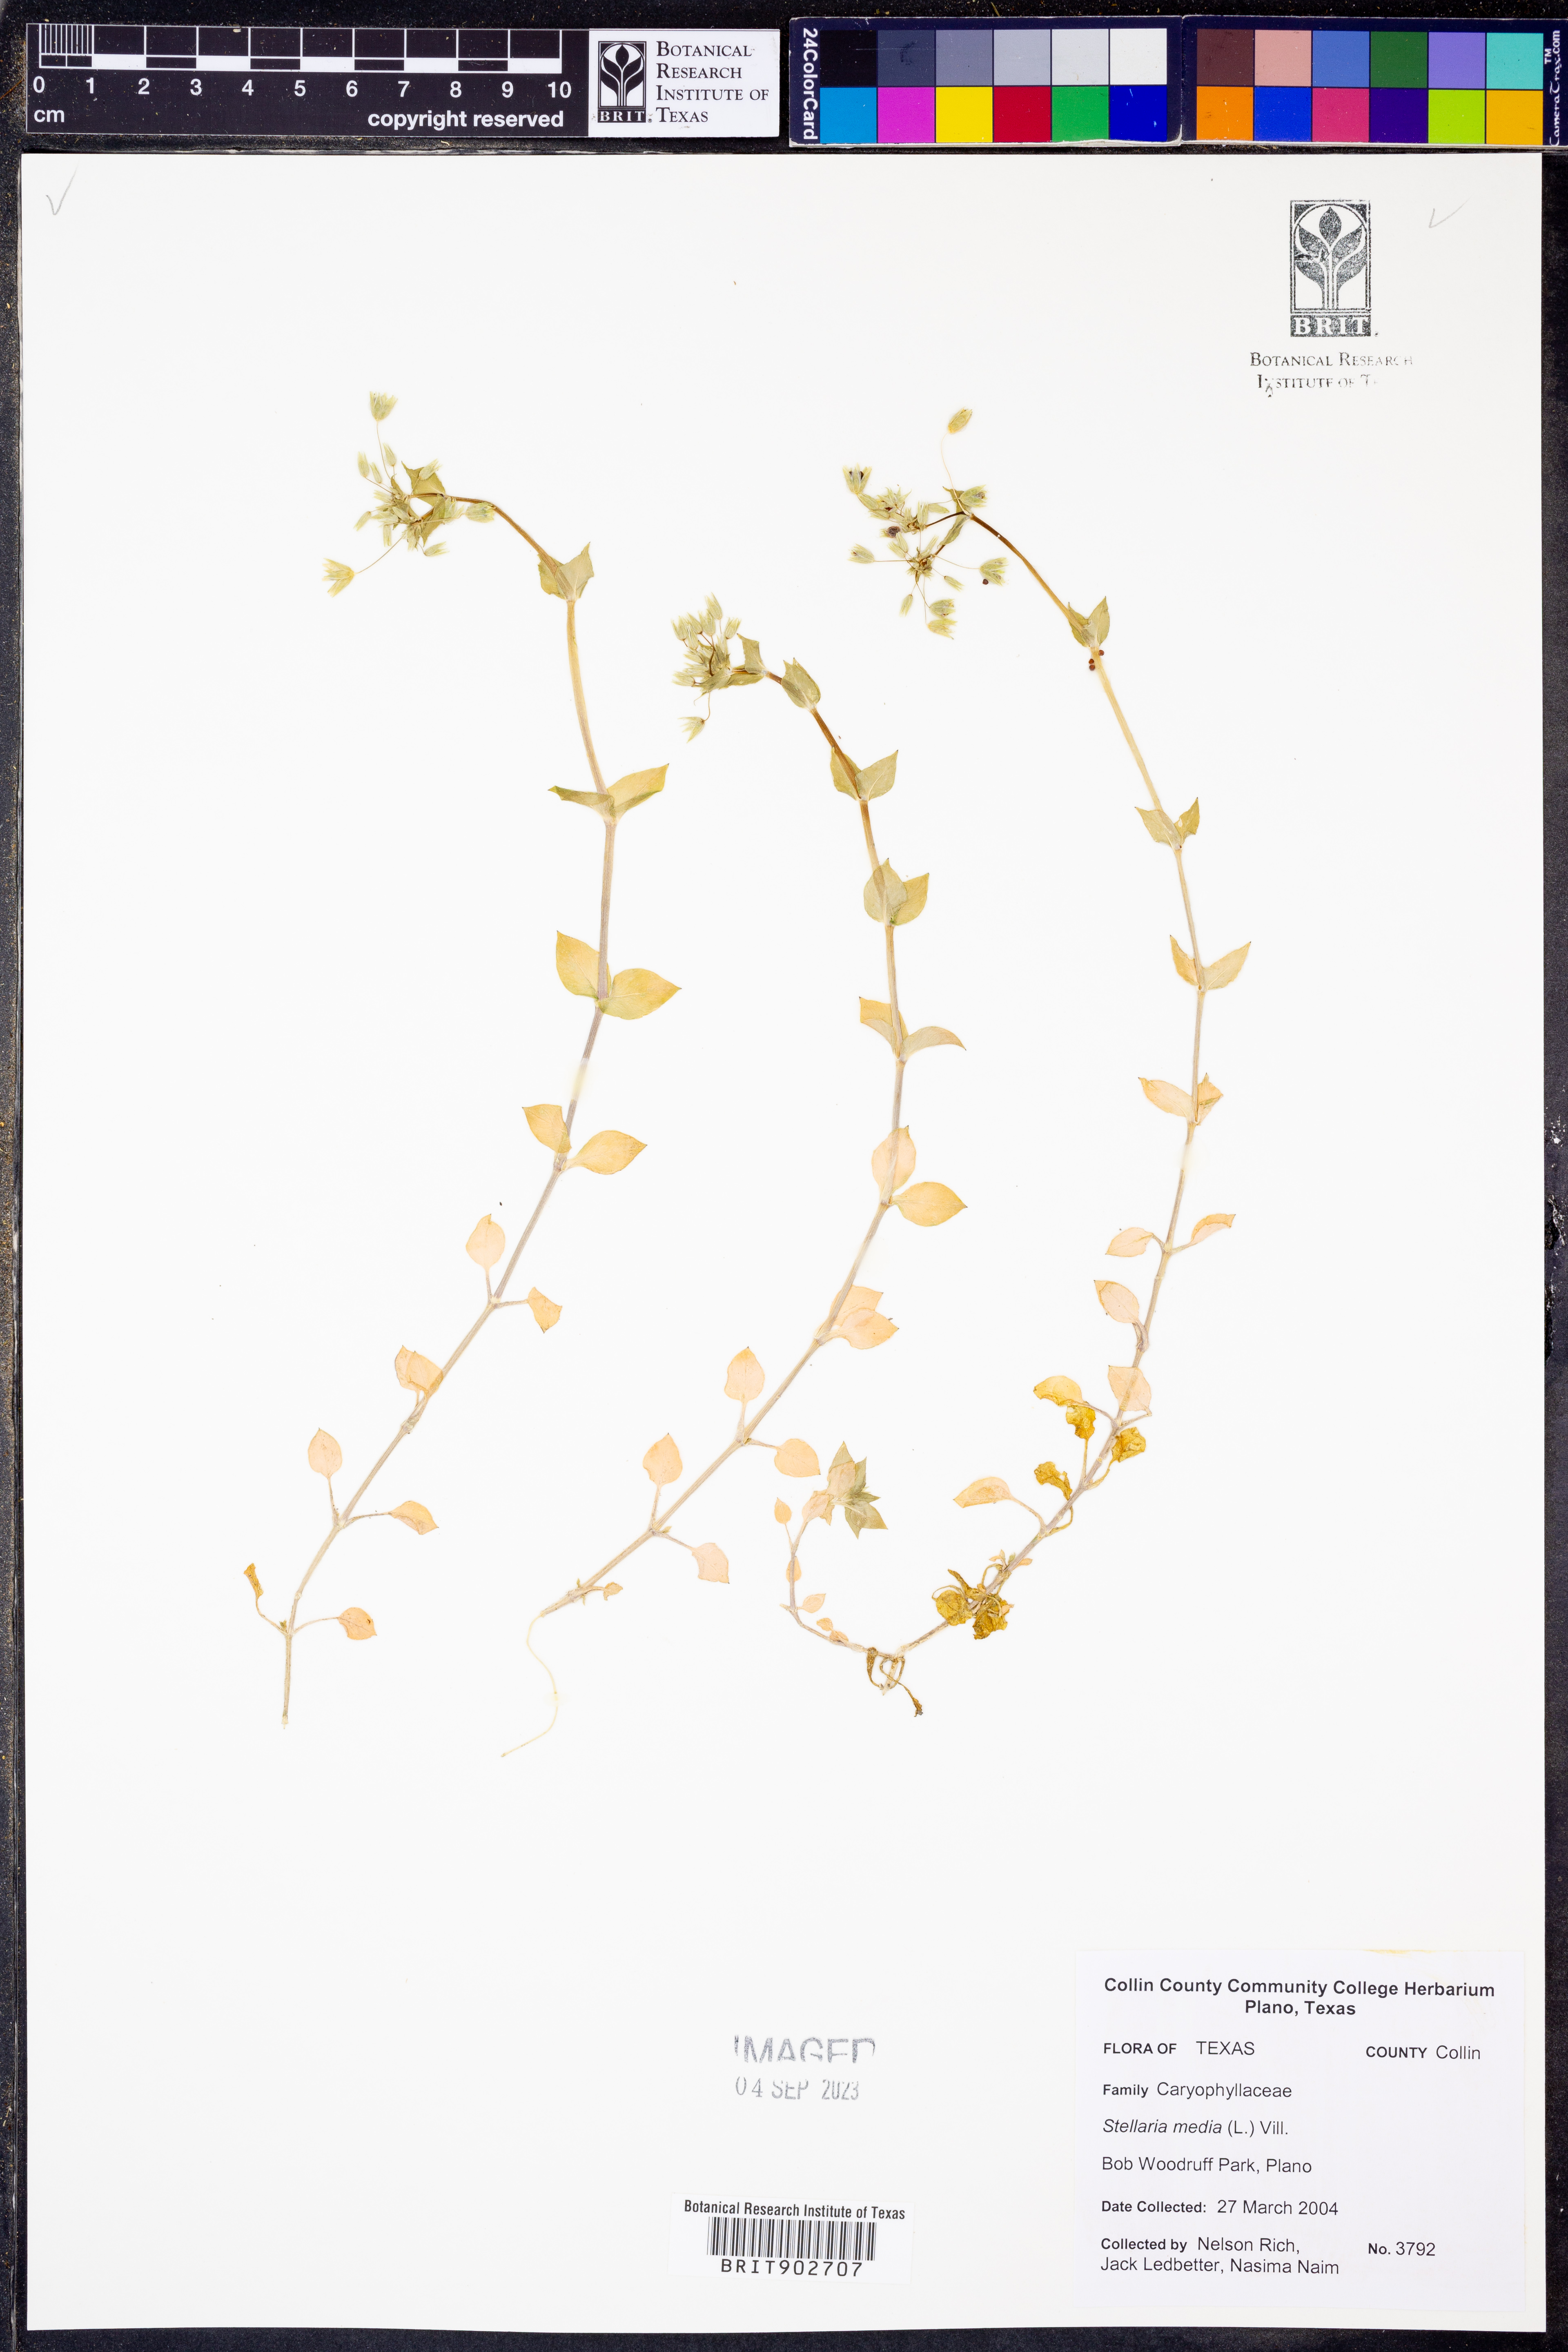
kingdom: Plantae
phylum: Tracheophyta
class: Magnoliopsida
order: Caryophyllales
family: Caryophyllaceae
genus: Stellaria
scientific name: Stellaria media
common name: Common chickweed
